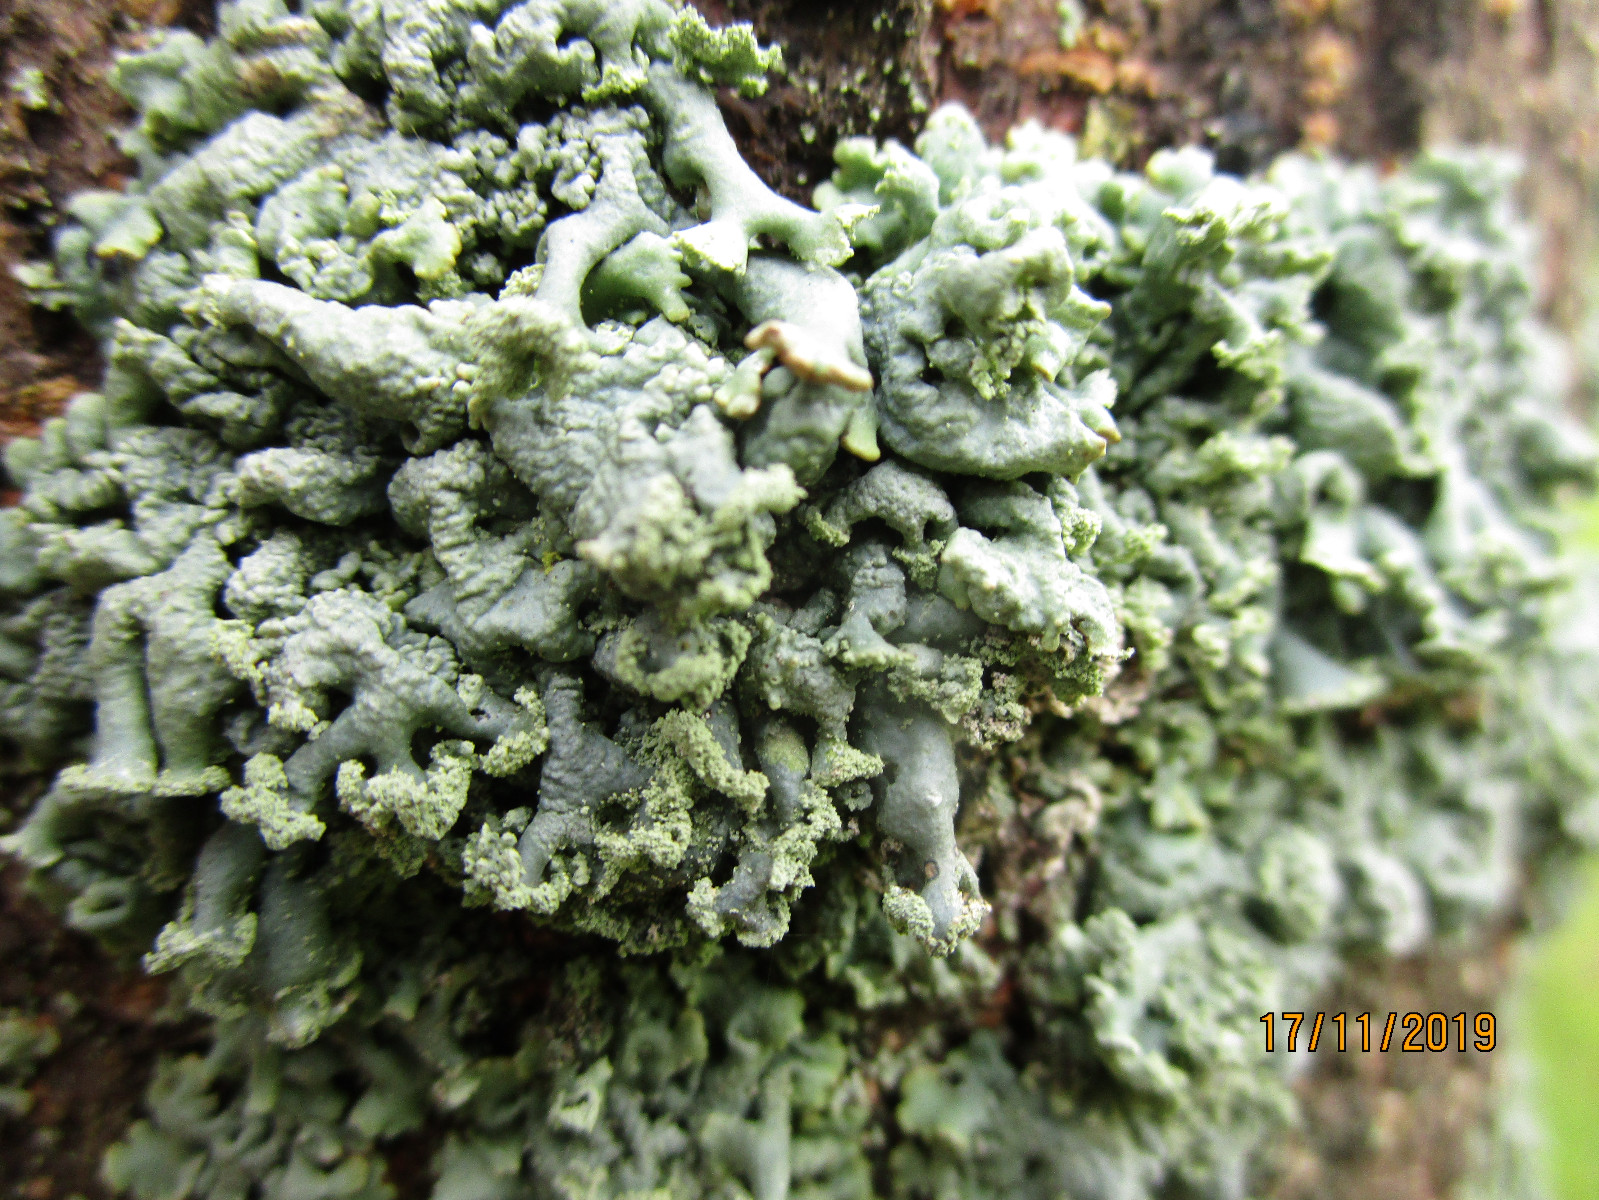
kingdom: Fungi
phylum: Ascomycota
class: Lecanoromycetes
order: Lecanorales
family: Parmeliaceae
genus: Hypogymnia
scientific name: Hypogymnia physodes
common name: almindelig kvistlav
